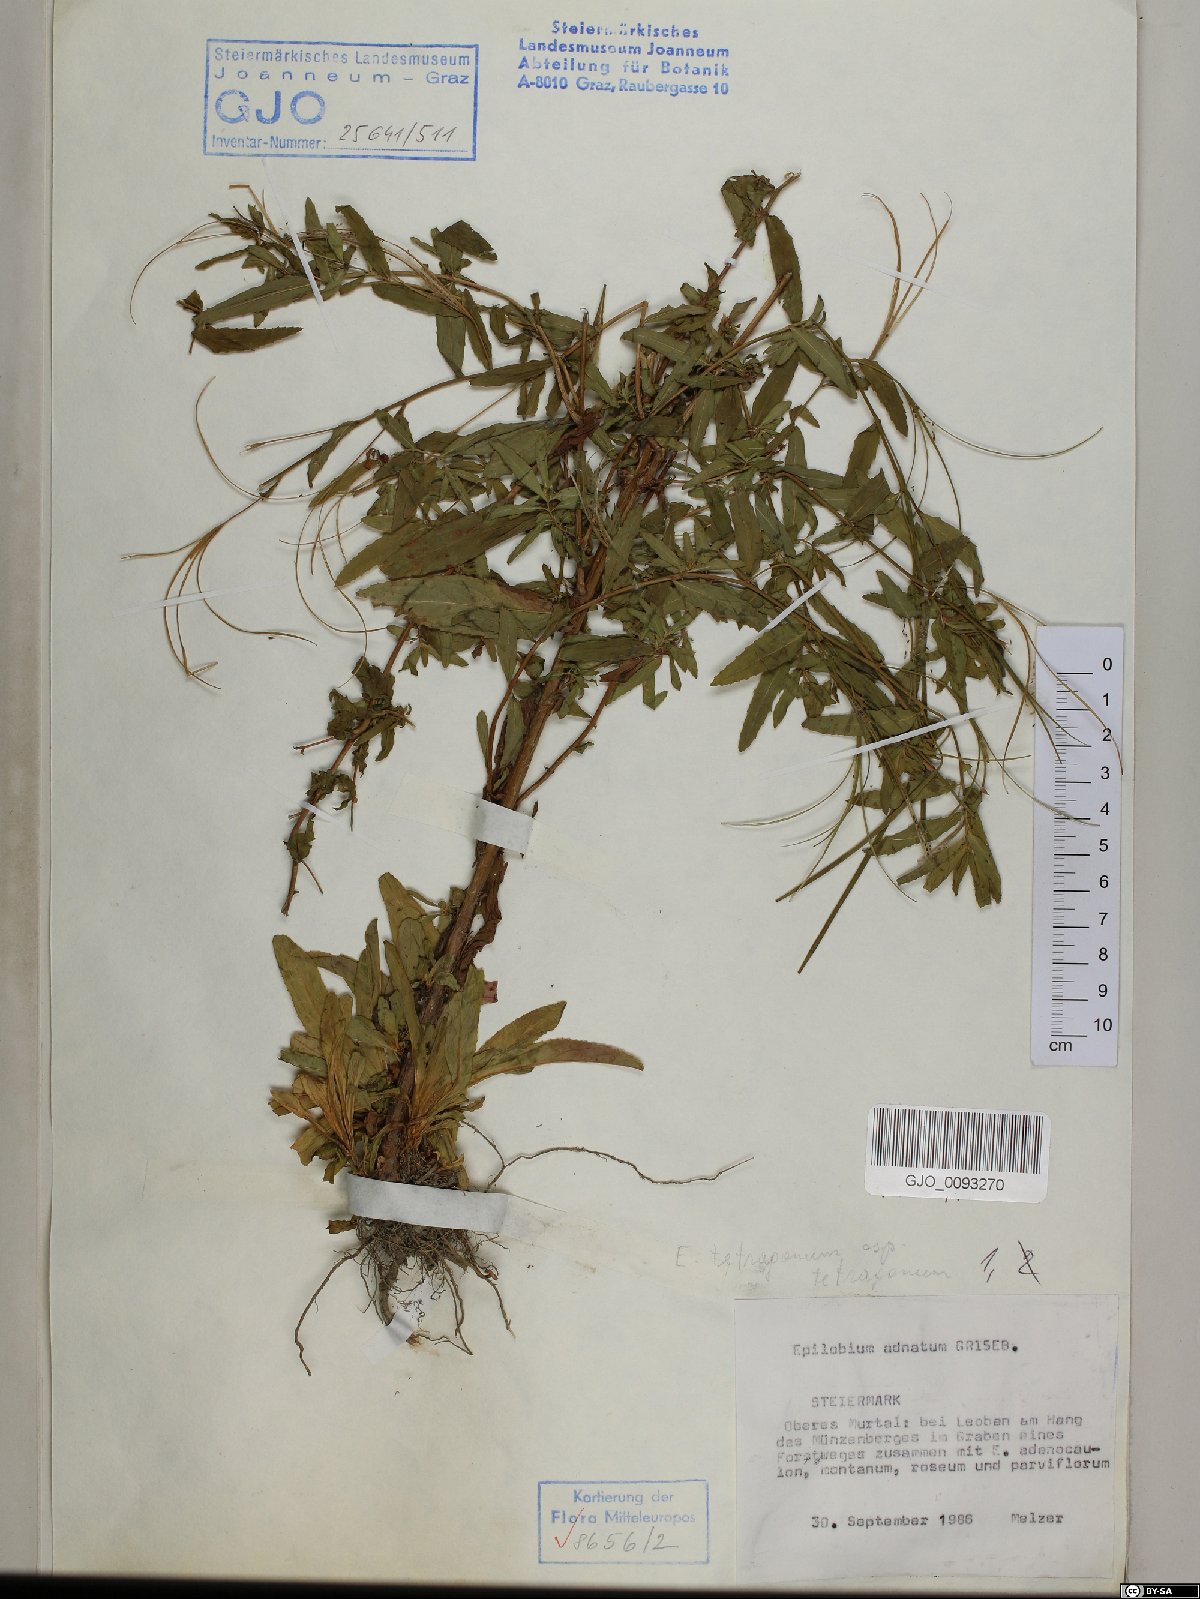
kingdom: Plantae
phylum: Tracheophyta
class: Magnoliopsida
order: Myrtales
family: Onagraceae
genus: Epilobium
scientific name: Epilobium tetragonum
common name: Square-stemmed willowherb
